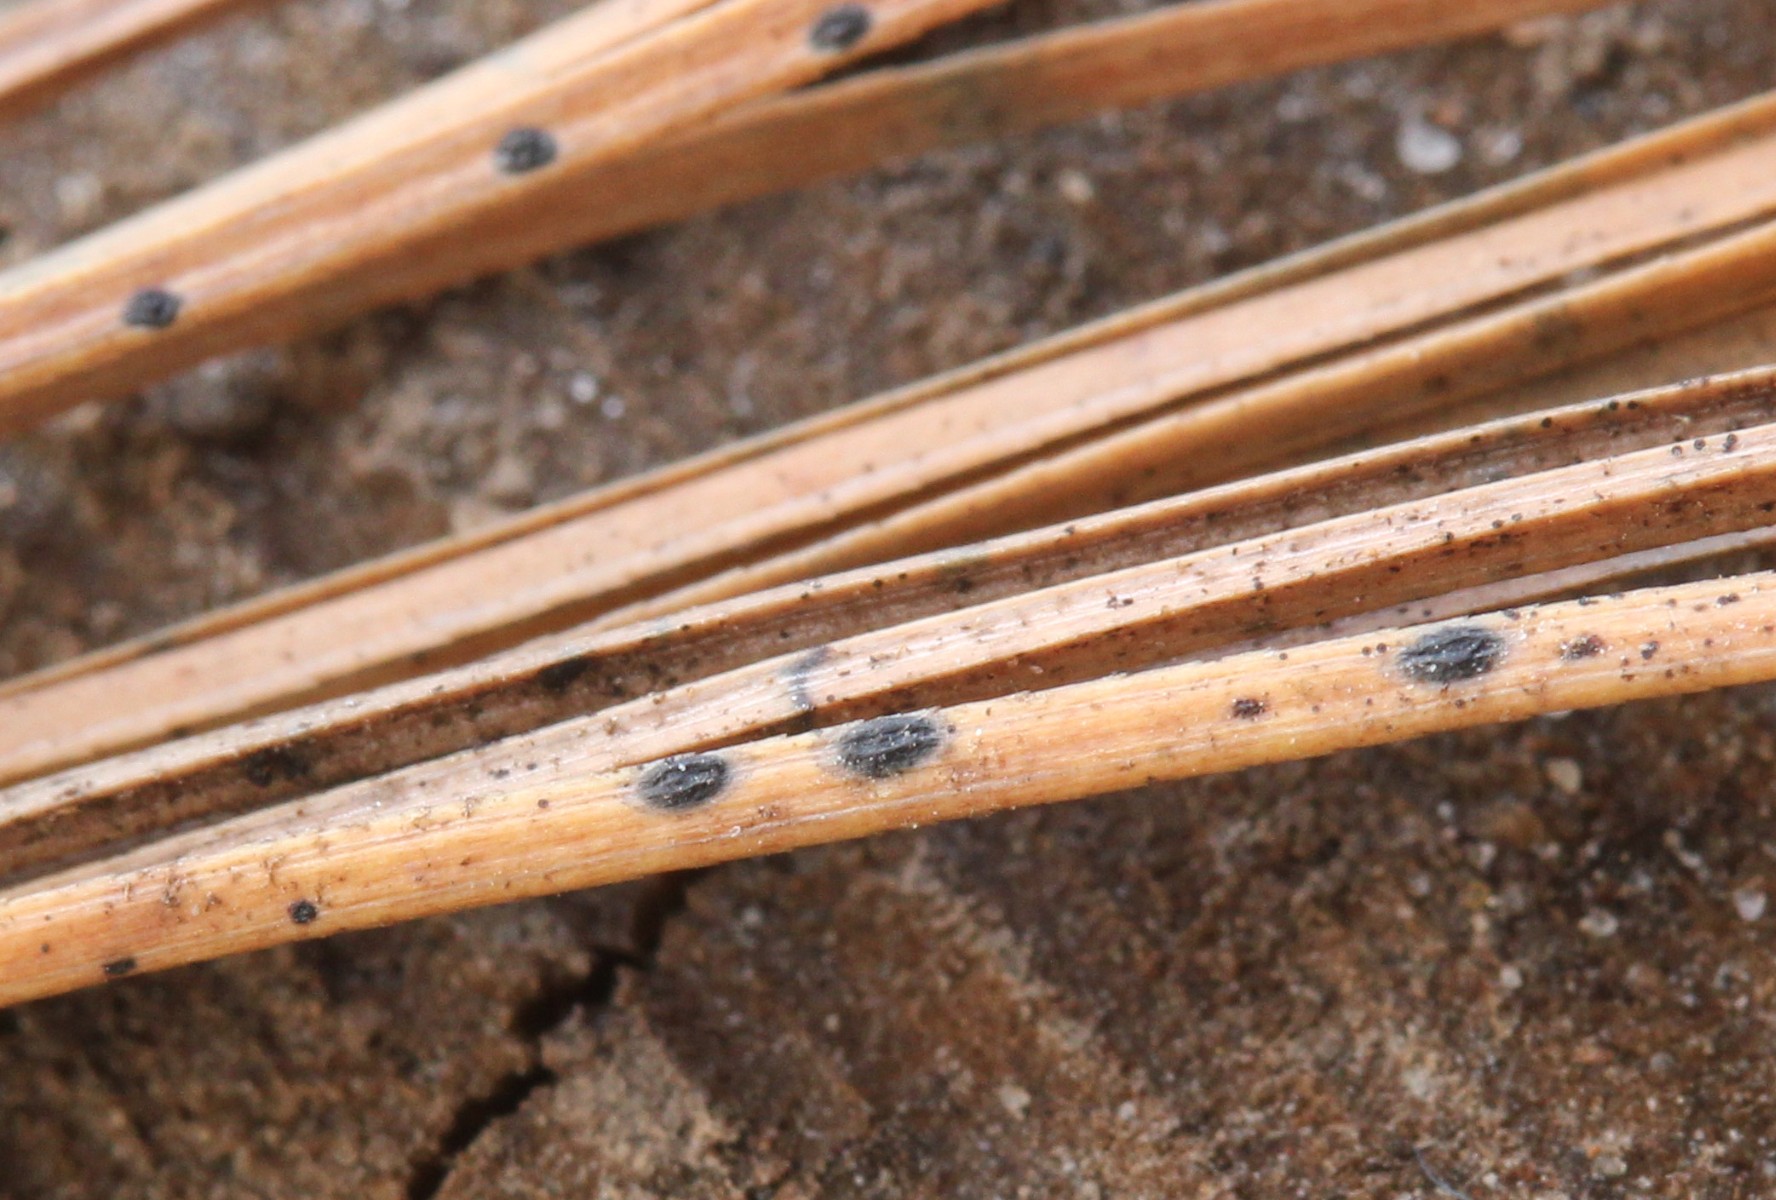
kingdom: Fungi
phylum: Ascomycota
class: Leotiomycetes
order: Rhytismatales
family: Rhytismataceae
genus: Lophodermium
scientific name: Lophodermium
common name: fureplet
